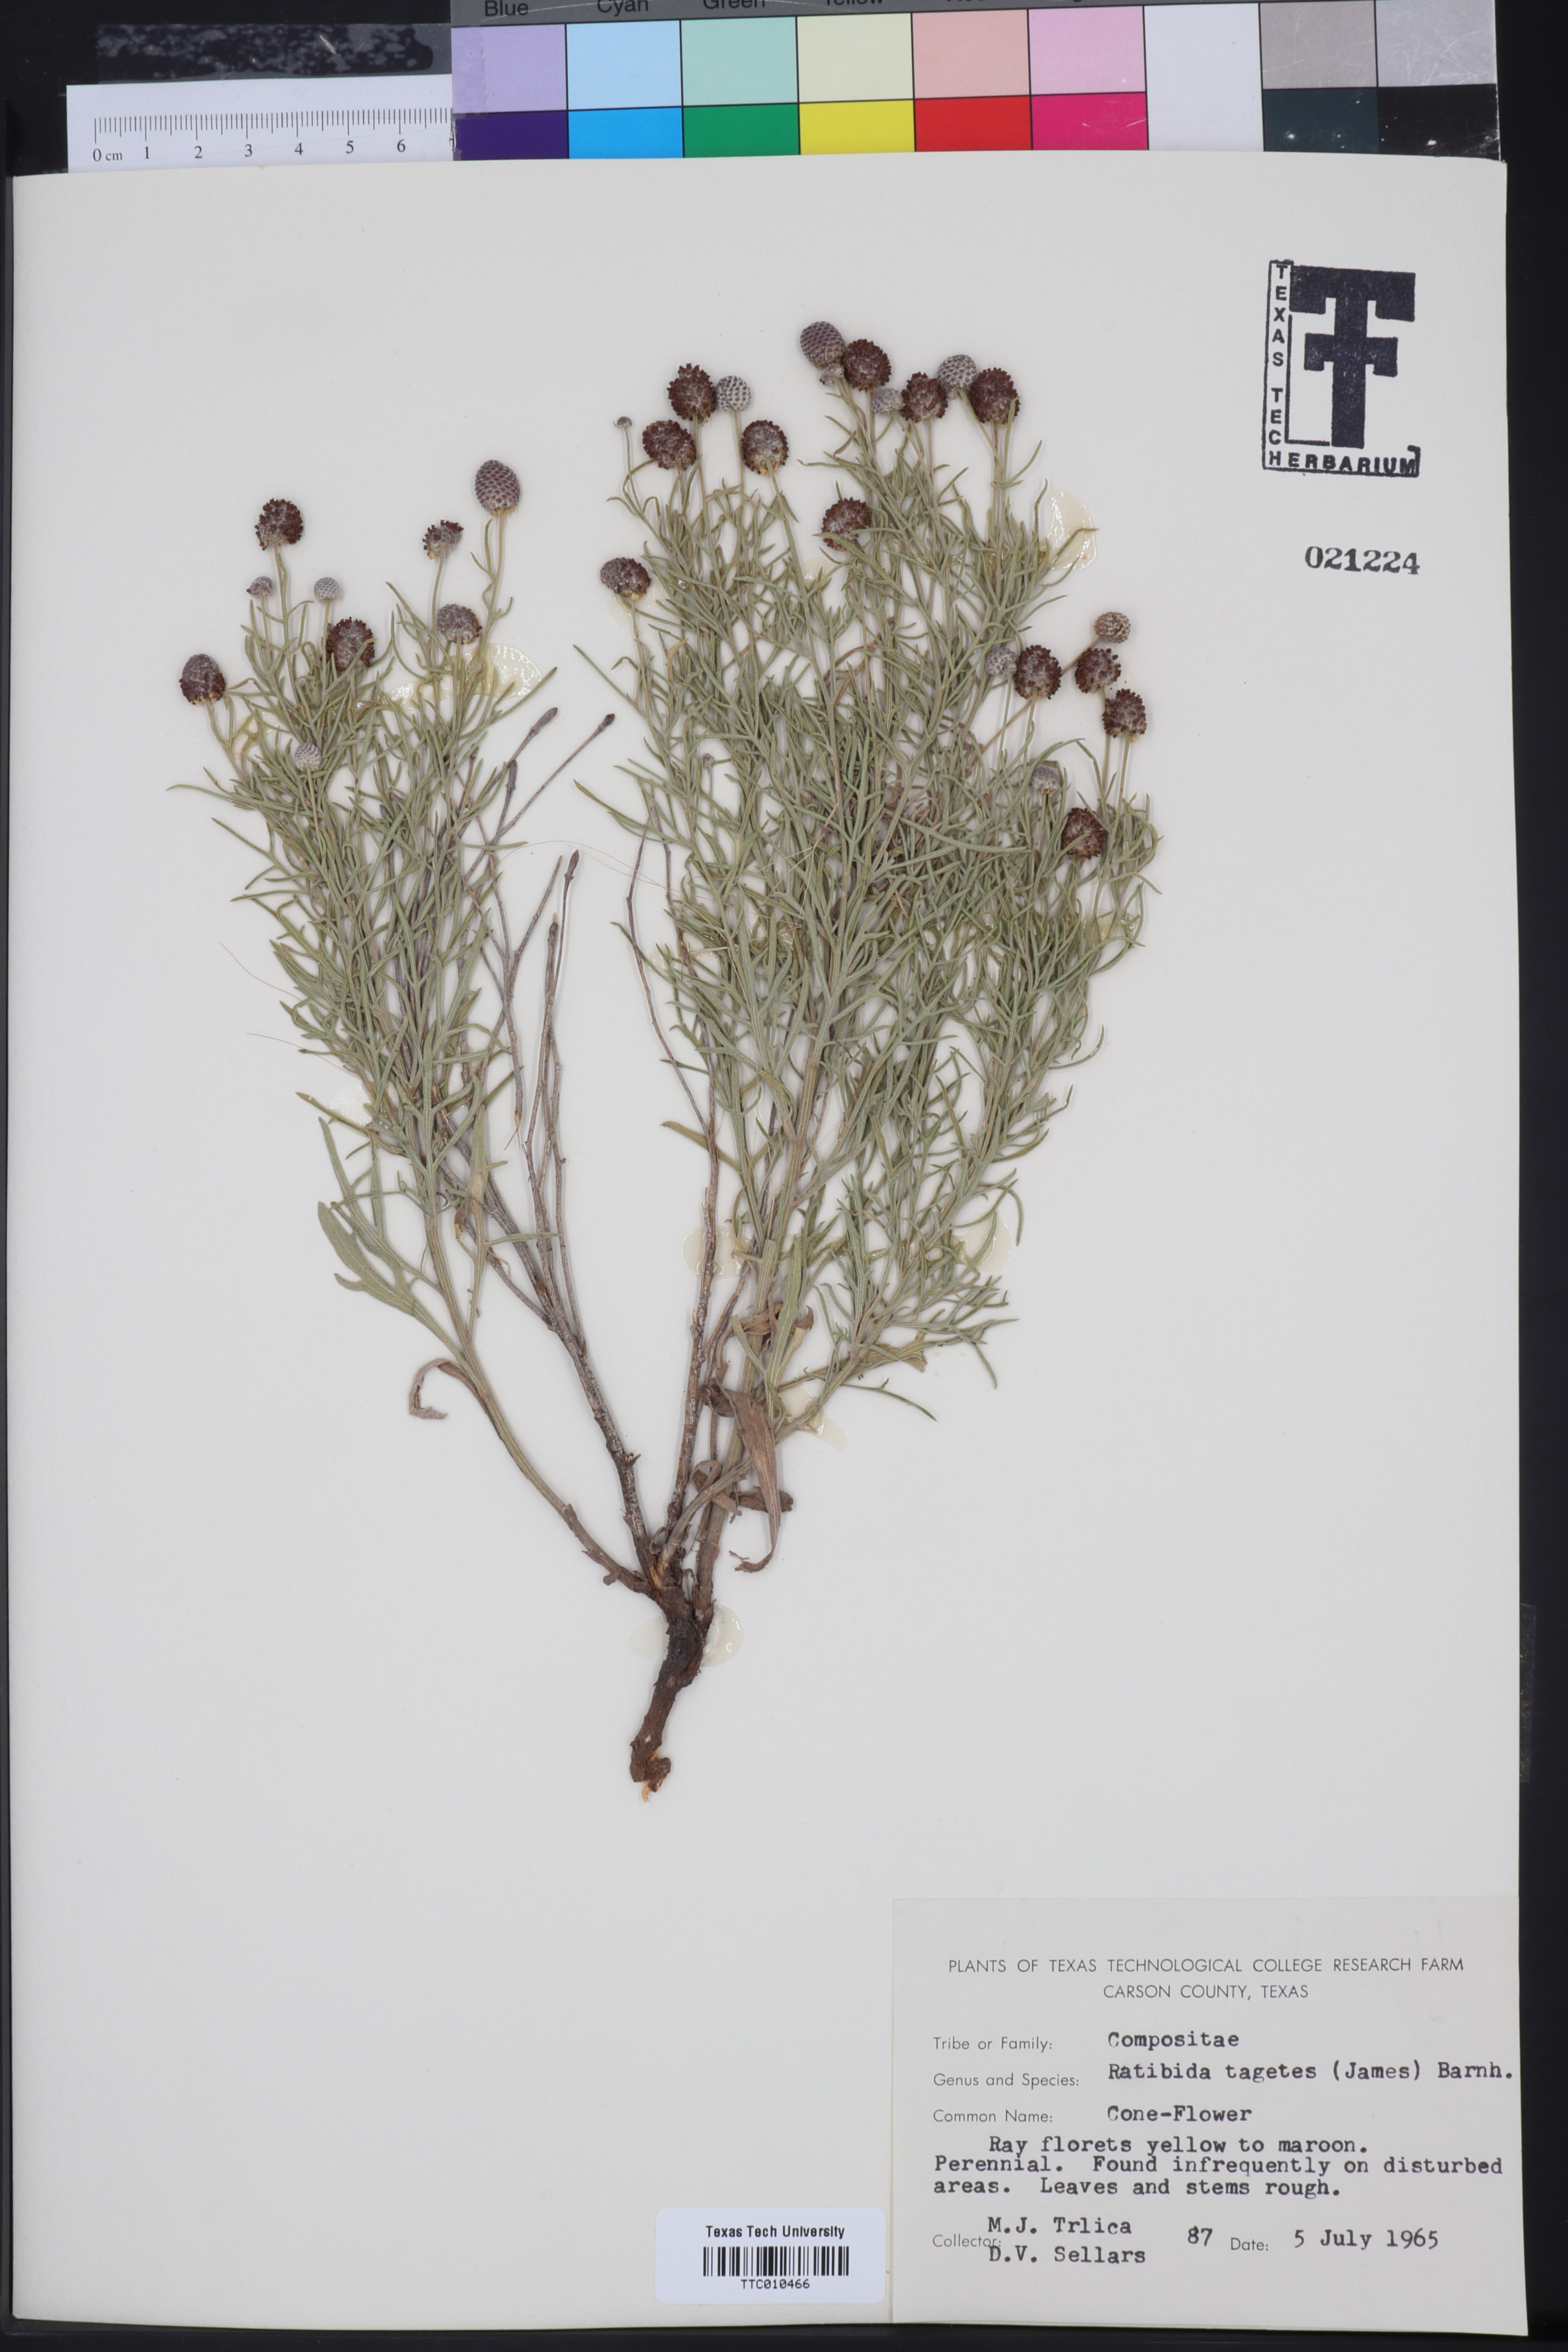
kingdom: Plantae
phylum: Tracheophyta
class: Magnoliopsida
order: Asterales
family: Asteraceae
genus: Ratibida
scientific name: Ratibida tagetes
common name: Green mexican-hat
